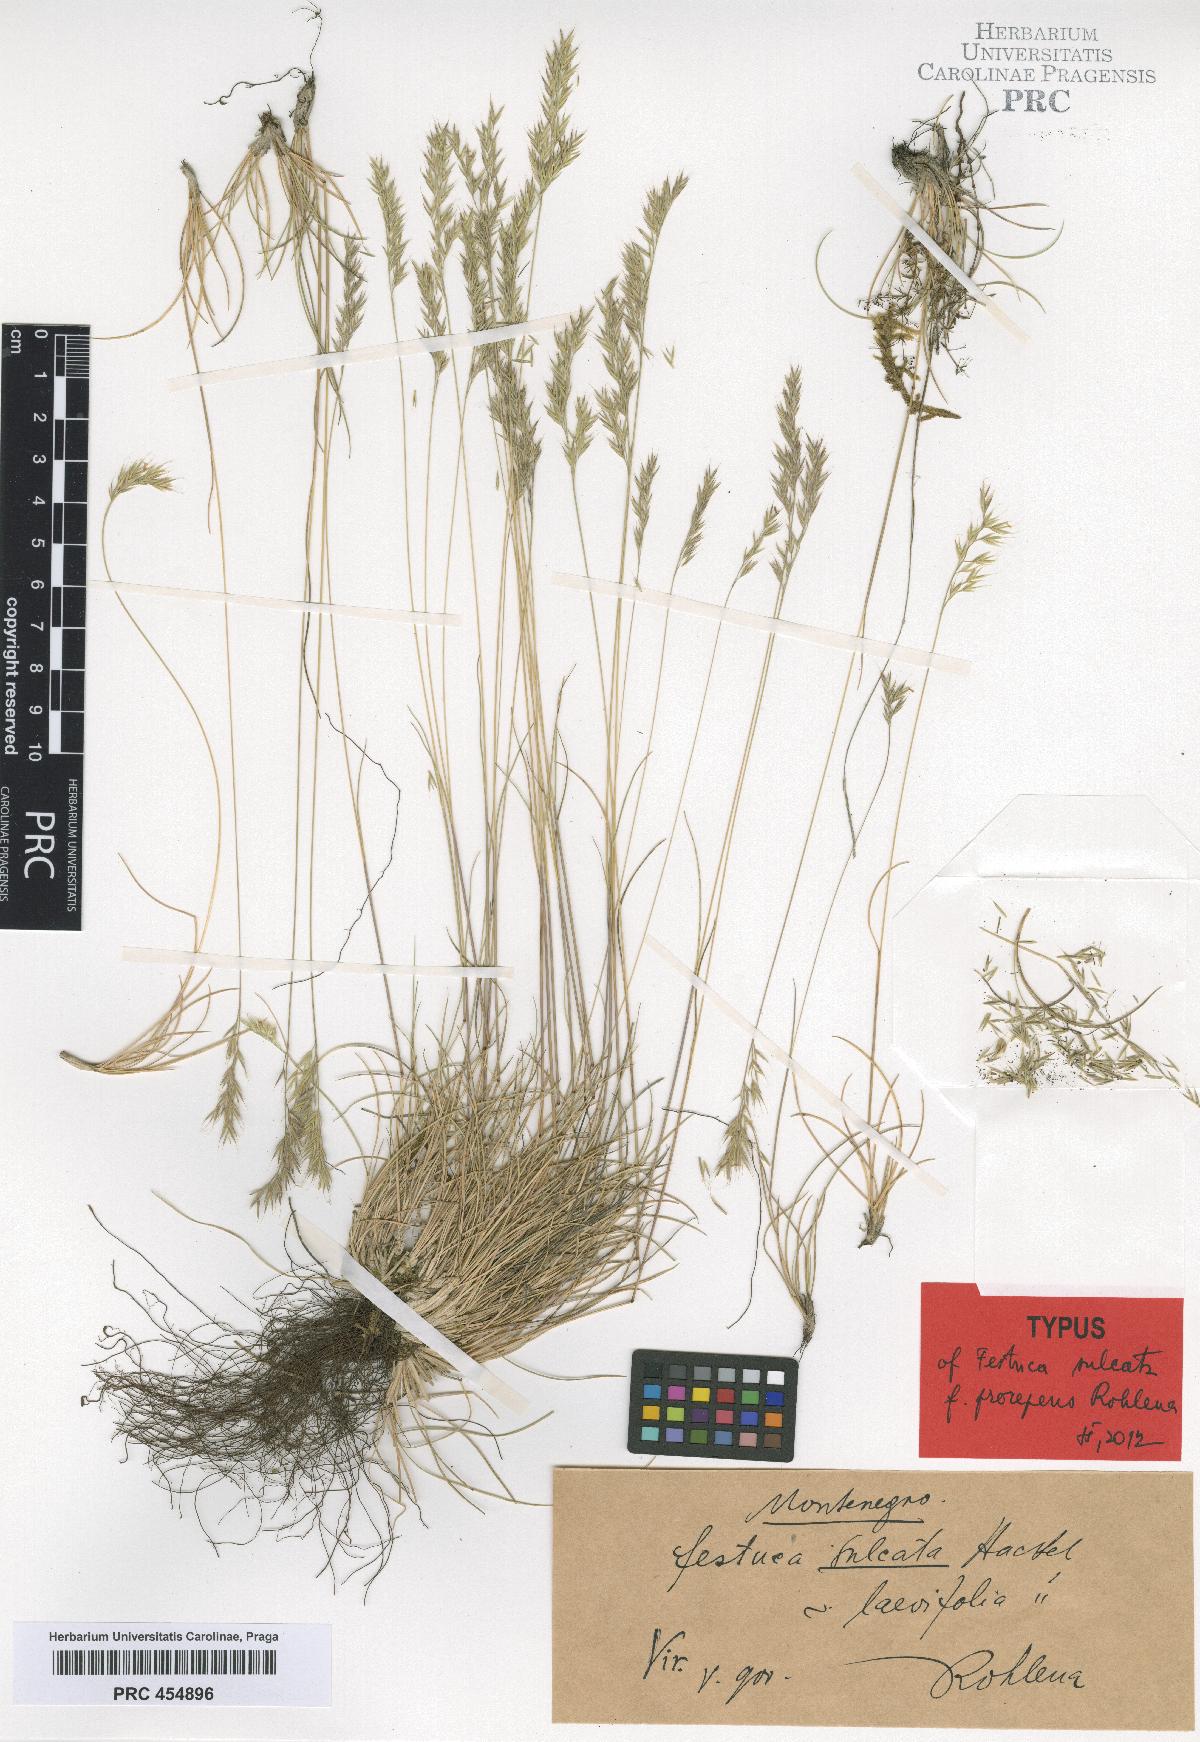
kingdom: Plantae
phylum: Tracheophyta
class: Liliopsida
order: Poales
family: Poaceae
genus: Festuca
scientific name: Festuca rupicola
